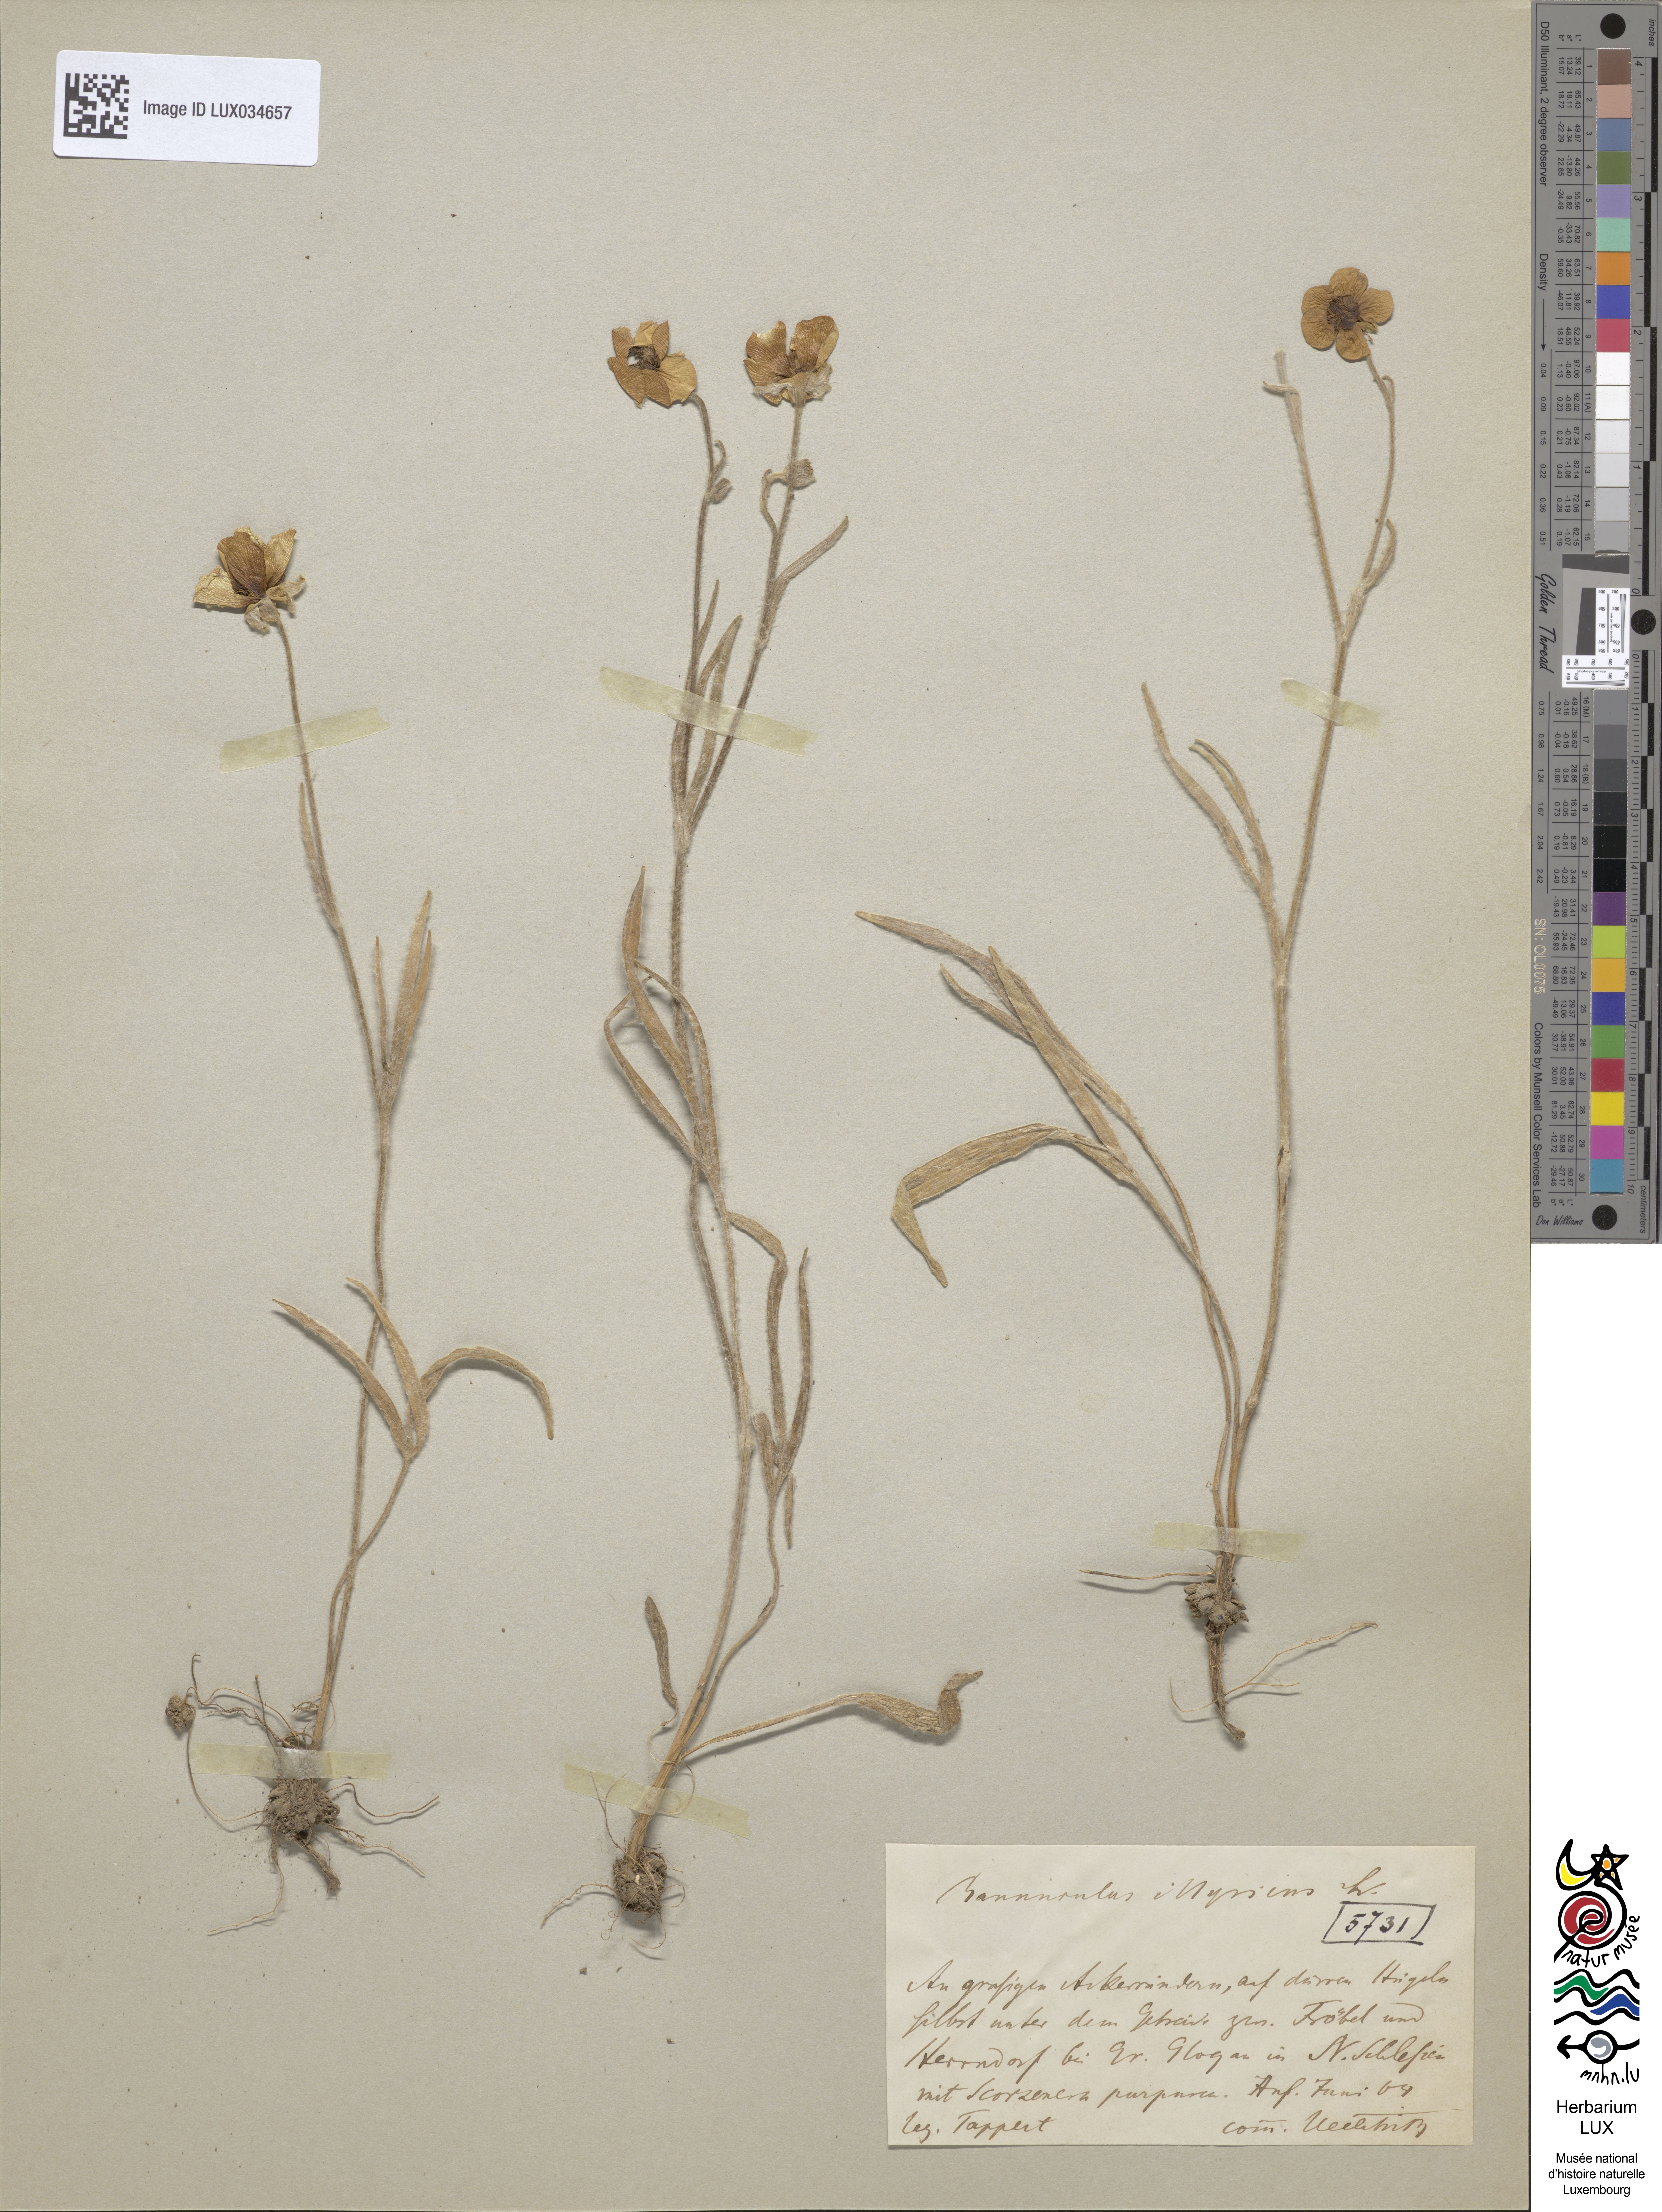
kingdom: Plantae
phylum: Tracheophyta
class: Magnoliopsida
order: Ranunculales
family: Ranunculaceae
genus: Ranunculus
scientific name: Ranunculus illyricus
